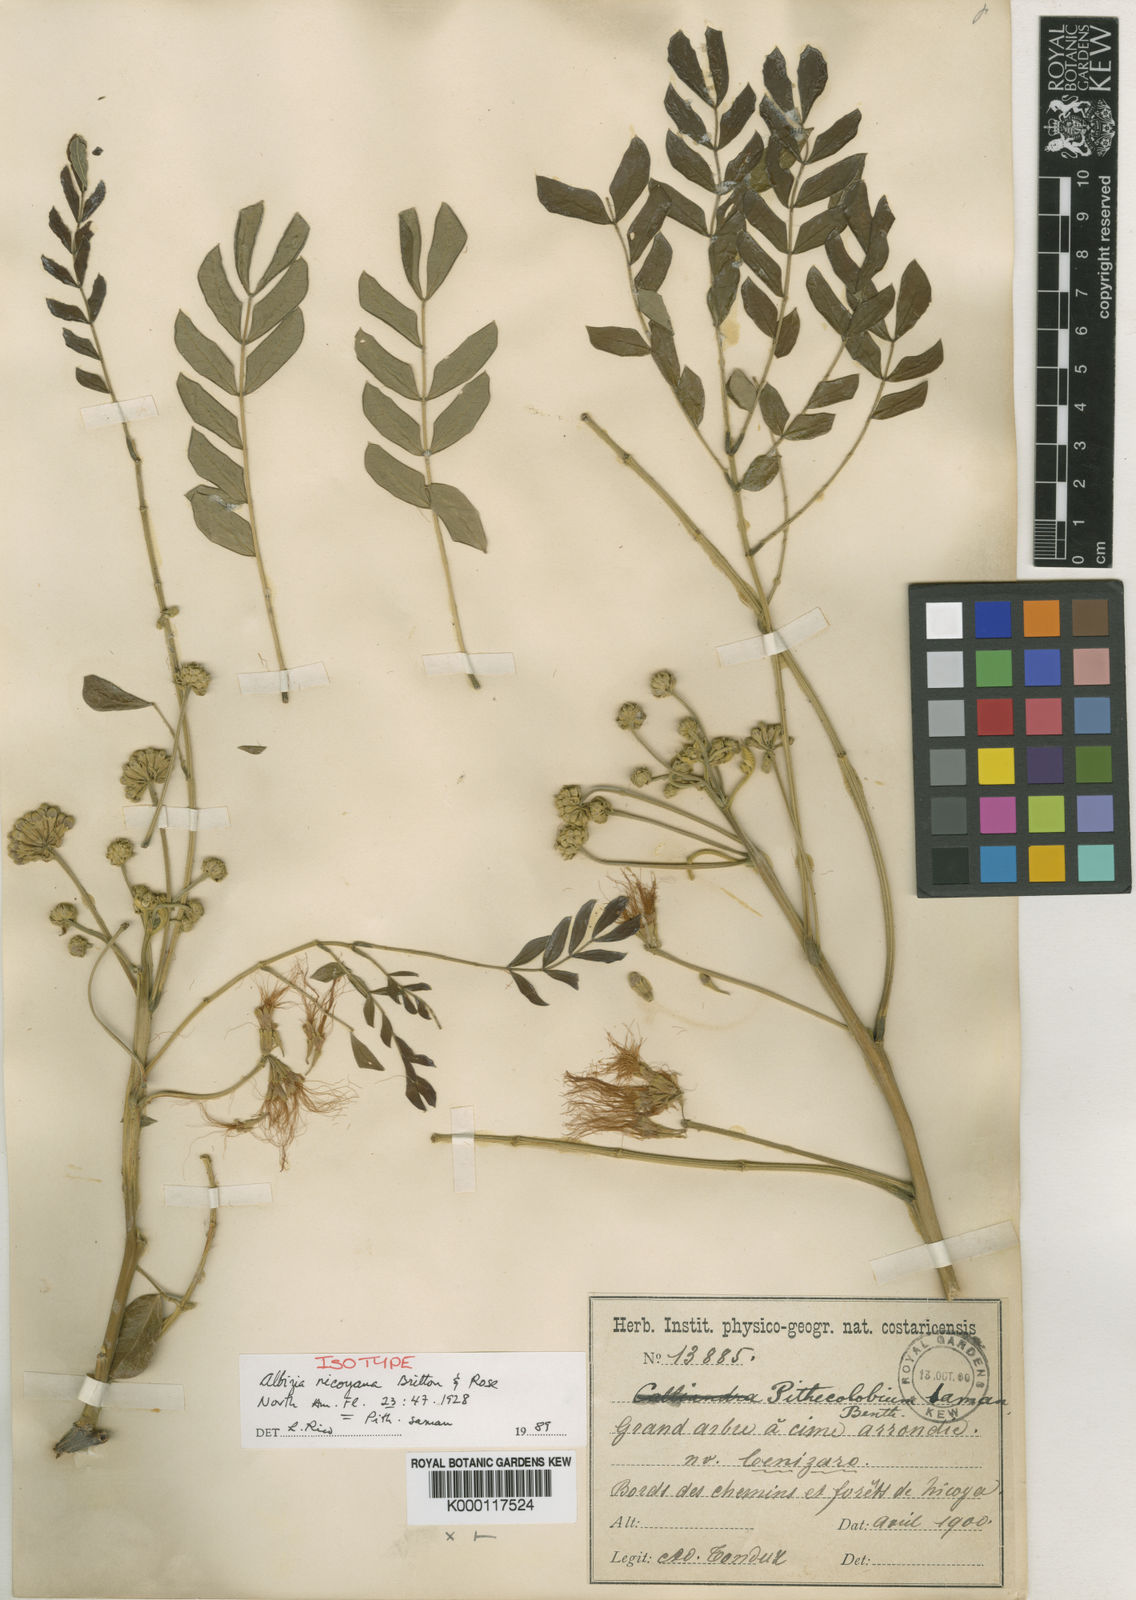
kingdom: Plantae
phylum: Tracheophyta
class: Magnoliopsida
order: Fabales
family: Fabaceae
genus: Samanea
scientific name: Samanea saman
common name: Raintree
